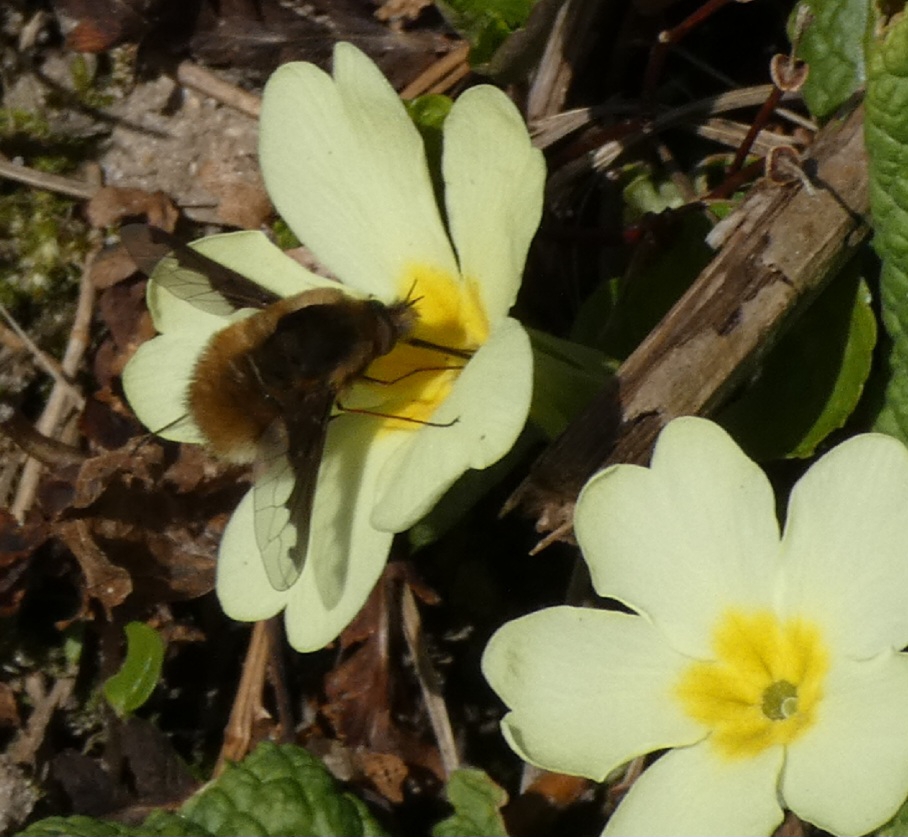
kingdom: Animalia
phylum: Arthropoda
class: Insecta
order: Diptera
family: Bombyliidae
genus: Bombylius
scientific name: Bombylius major
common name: Stor humleflue
